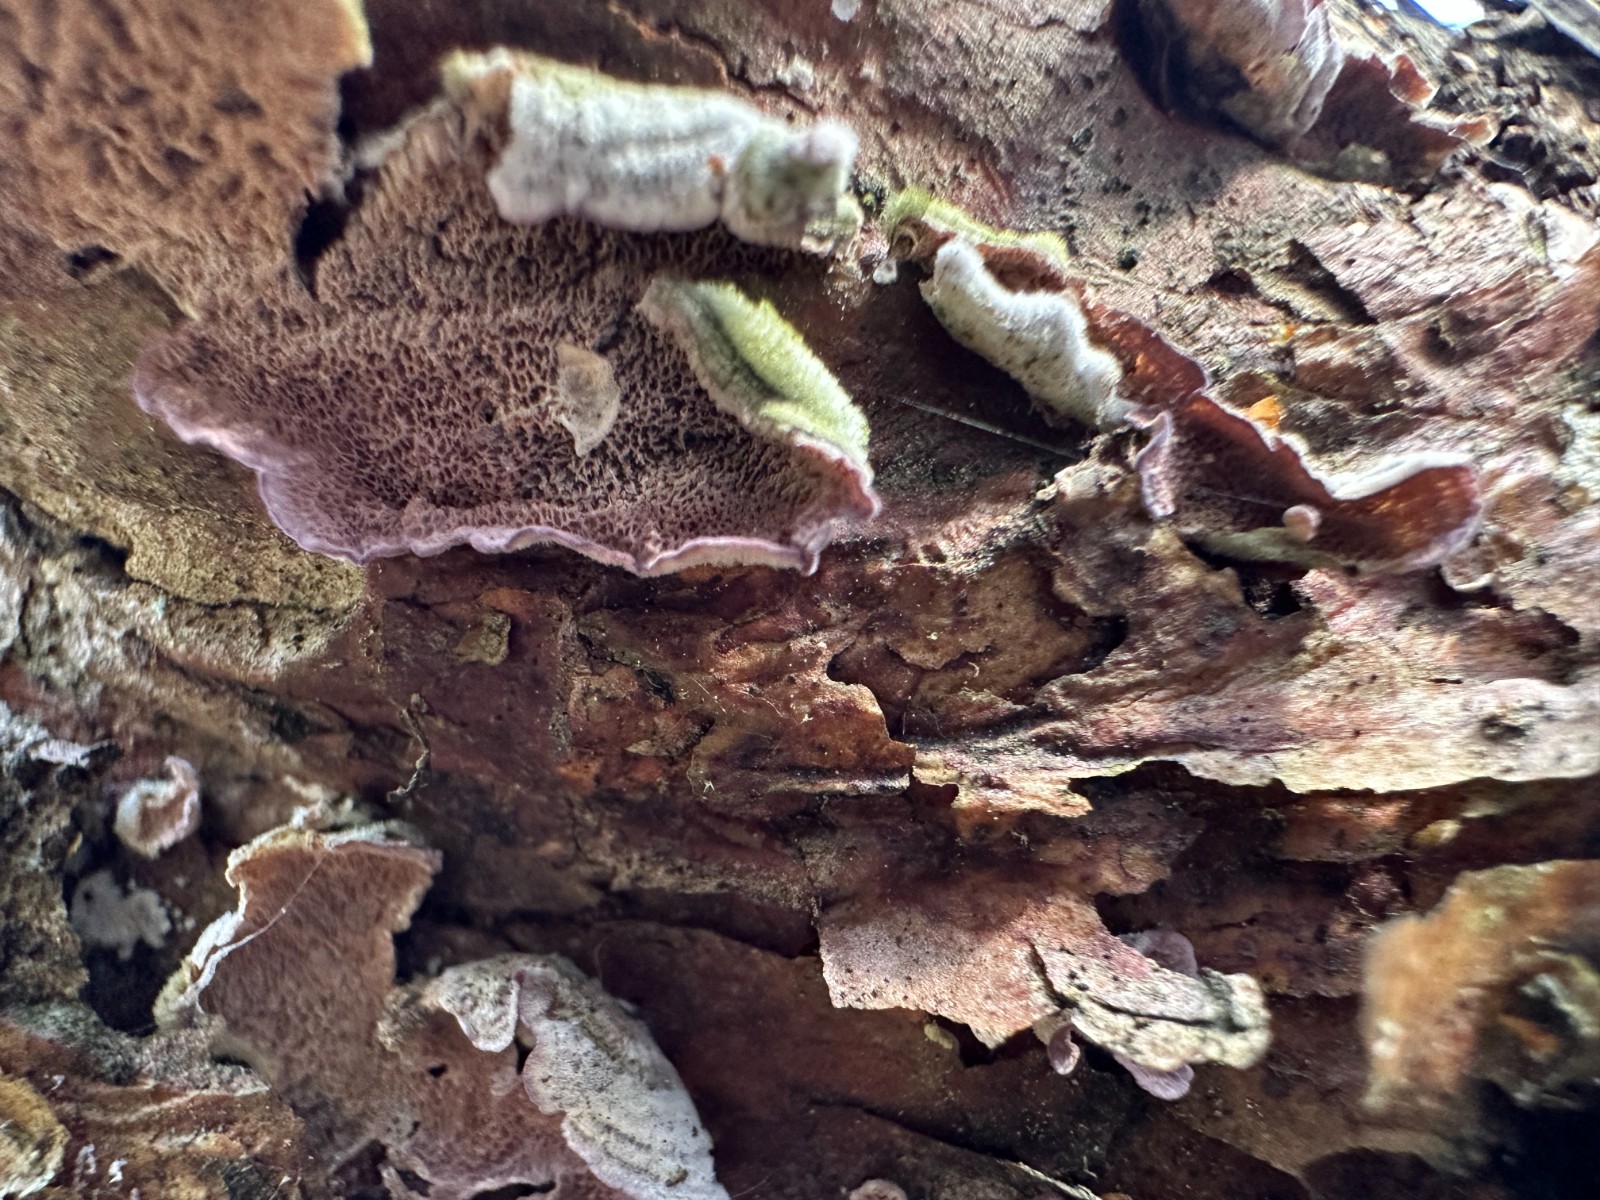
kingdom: Fungi
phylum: Basidiomycota
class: Agaricomycetes
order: Hymenochaetales
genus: Trichaptum
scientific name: Trichaptum abietinum
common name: almindelig violporesvamp
